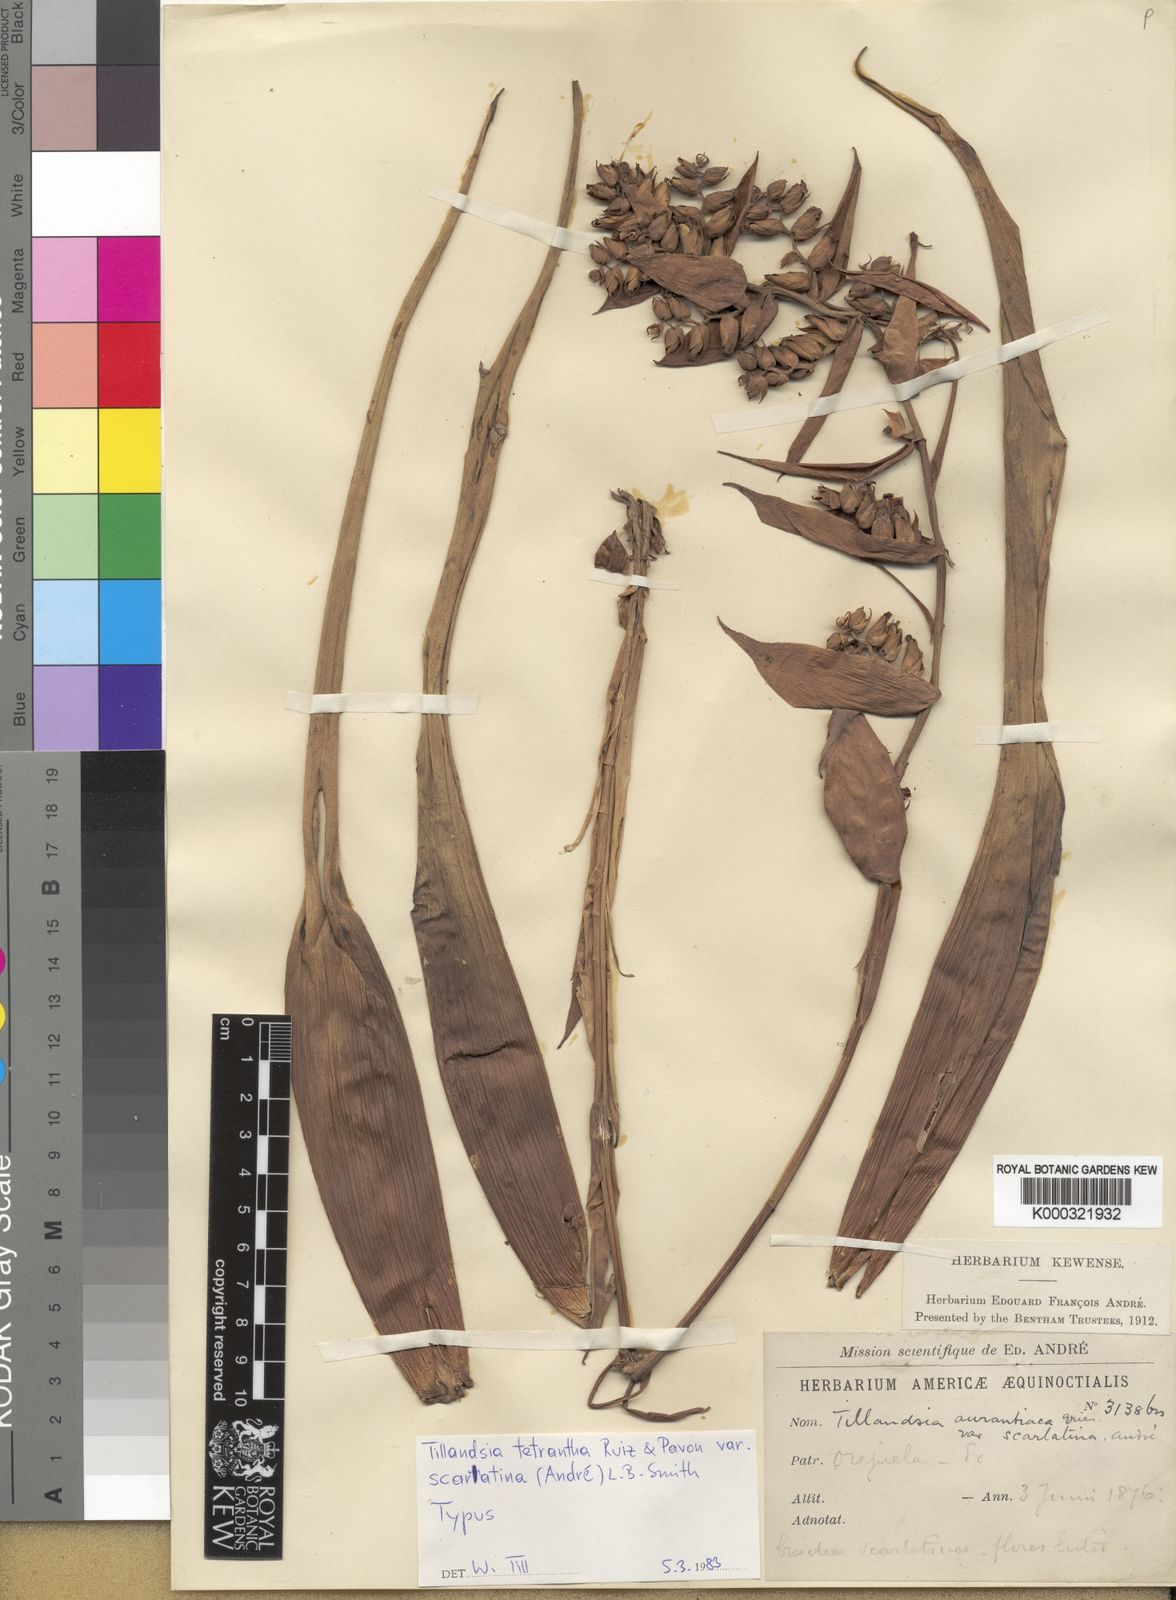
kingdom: Plantae
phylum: Tracheophyta
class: Liliopsida
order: Poales
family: Bromeliaceae
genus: Racinaea
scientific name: Racinaea tetrantha
